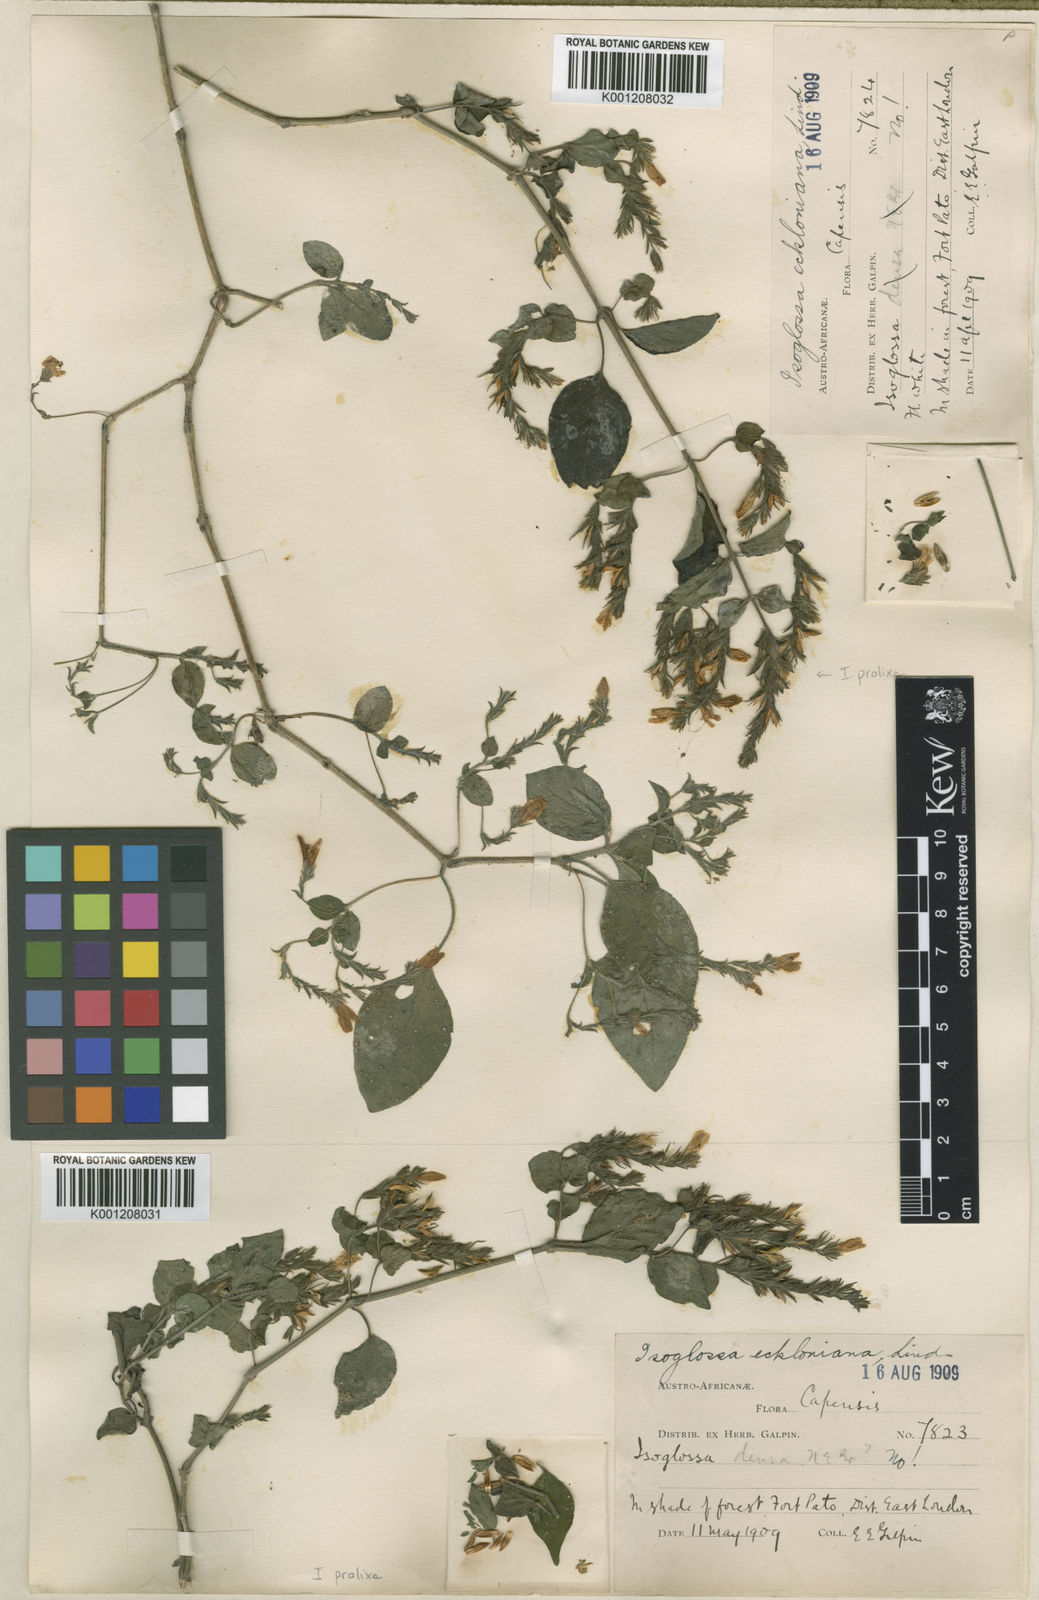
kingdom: Plantae
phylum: Tracheophyta
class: Magnoliopsida
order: Lamiales
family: Acanthaceae
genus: Isoglossa
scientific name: Isoglossa prolixa
